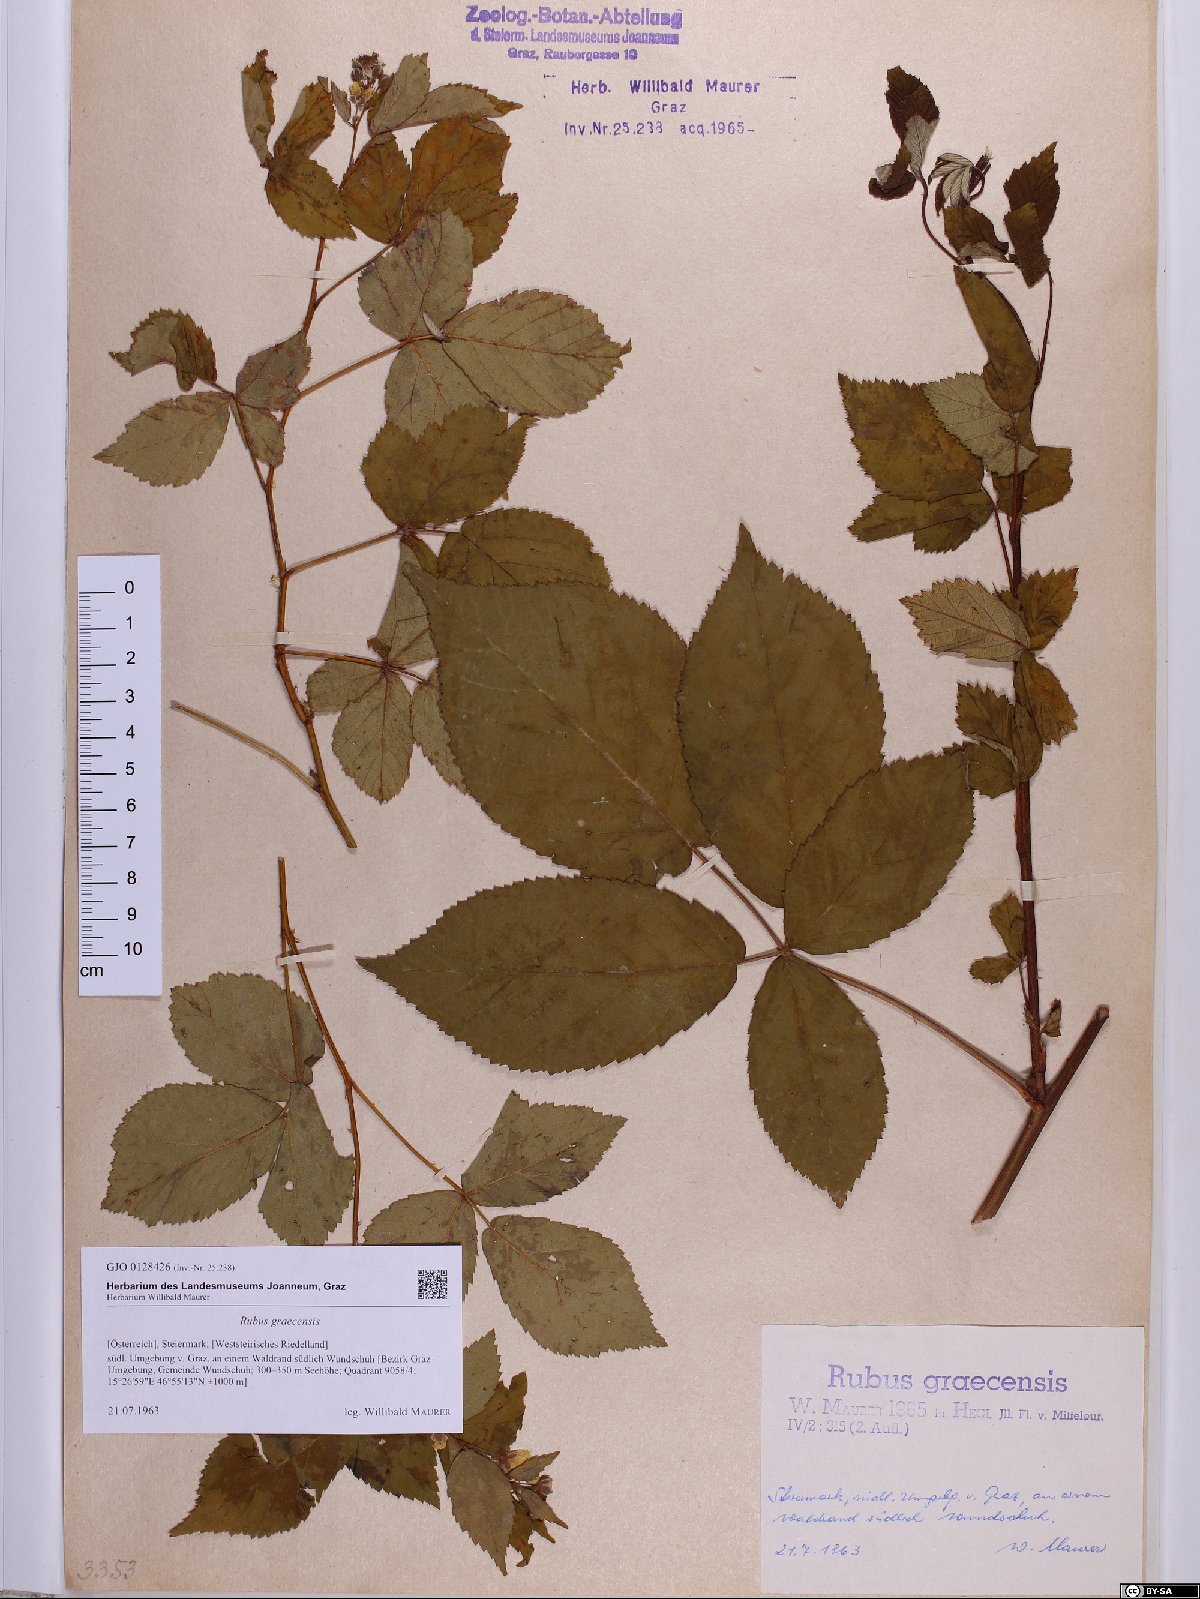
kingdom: Plantae
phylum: Tracheophyta
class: Magnoliopsida
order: Rosales
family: Rosaceae
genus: Rubus
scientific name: Rubus graecensis
